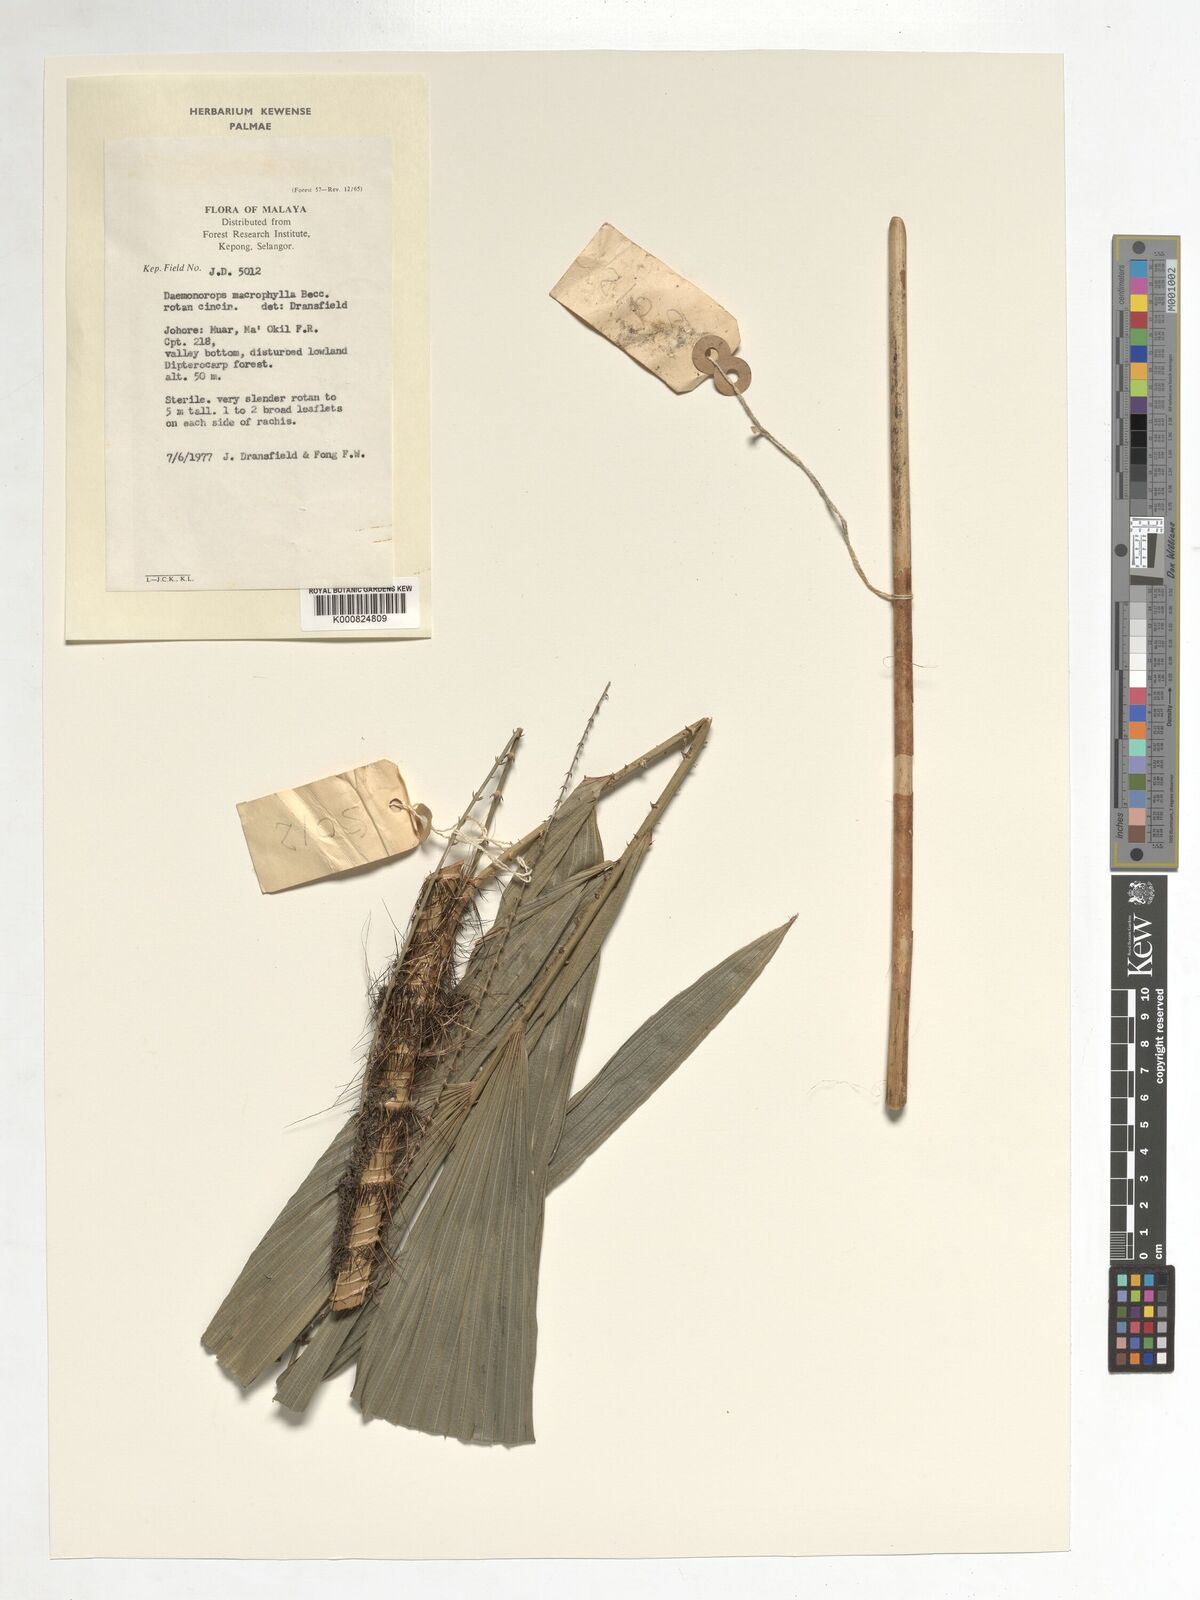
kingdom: Plantae
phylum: Tracheophyta
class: Liliopsida
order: Arecales
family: Arecaceae
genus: Calamus
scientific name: Calamus crinitus
